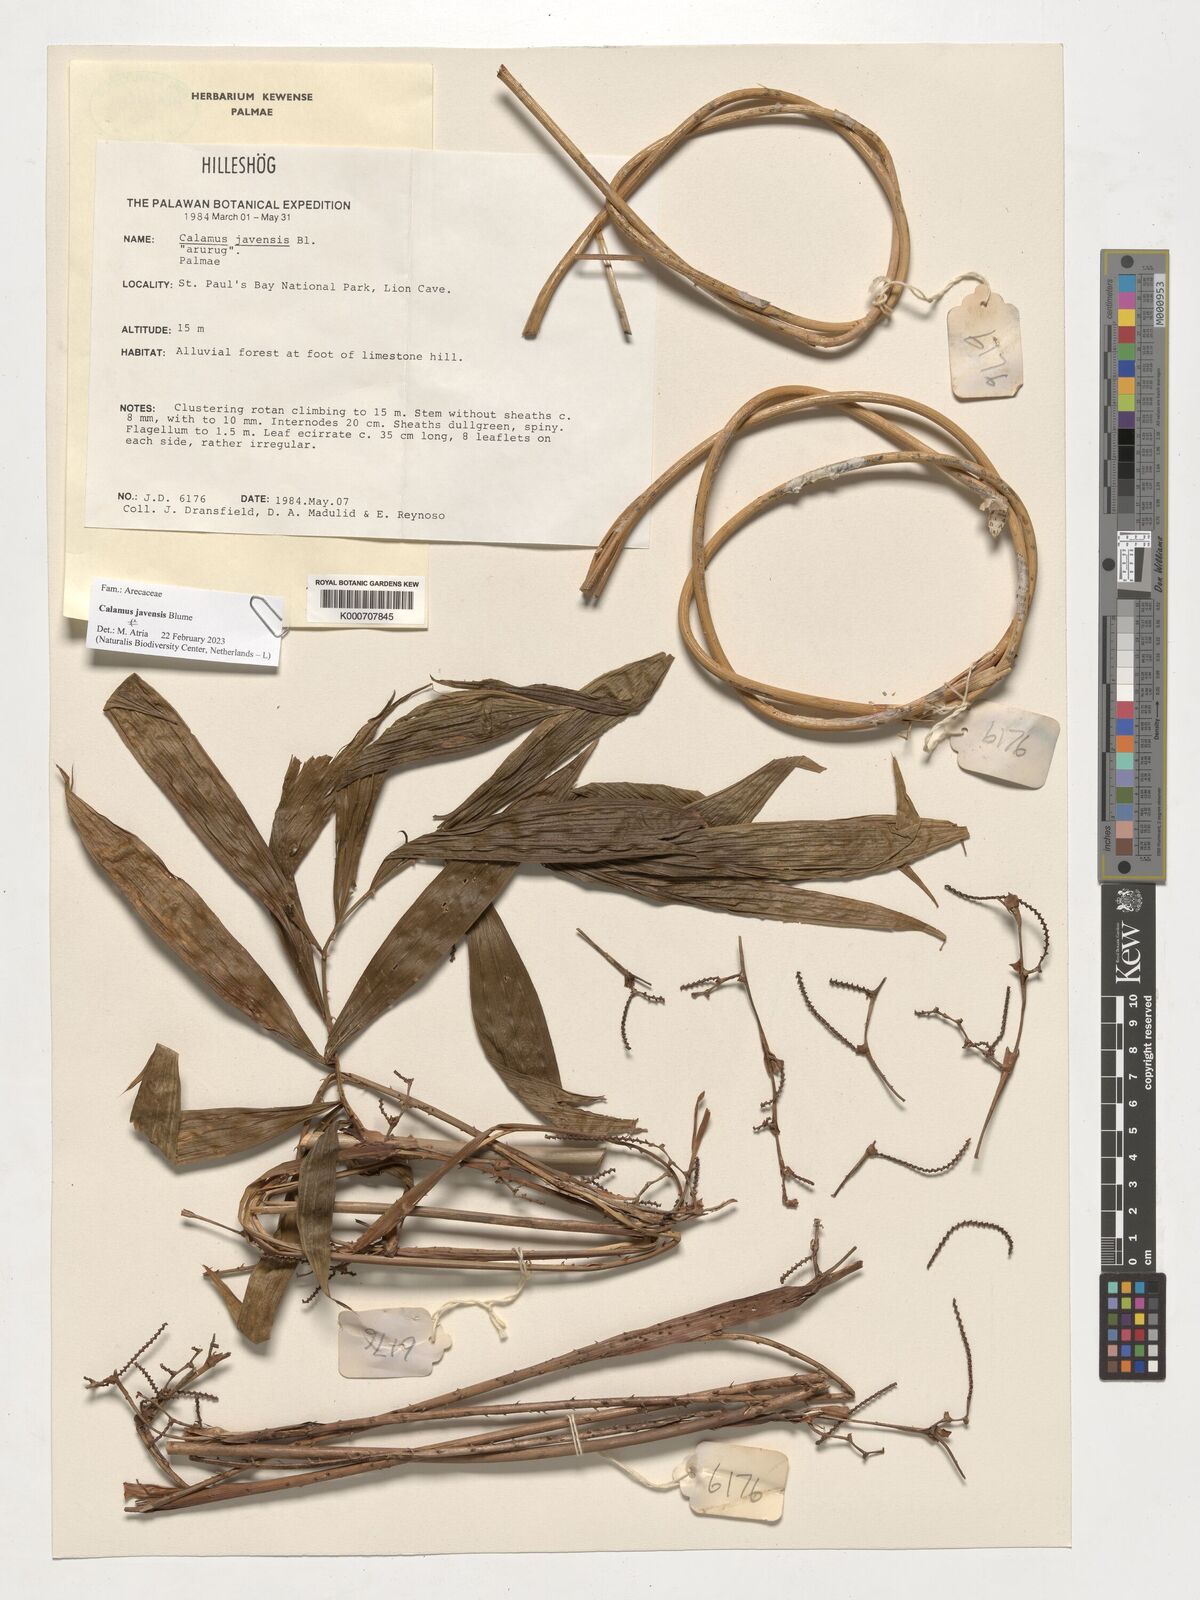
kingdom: Plantae
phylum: Tracheophyta
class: Liliopsida
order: Arecales
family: Arecaceae
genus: Calamus
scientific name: Calamus javensis
